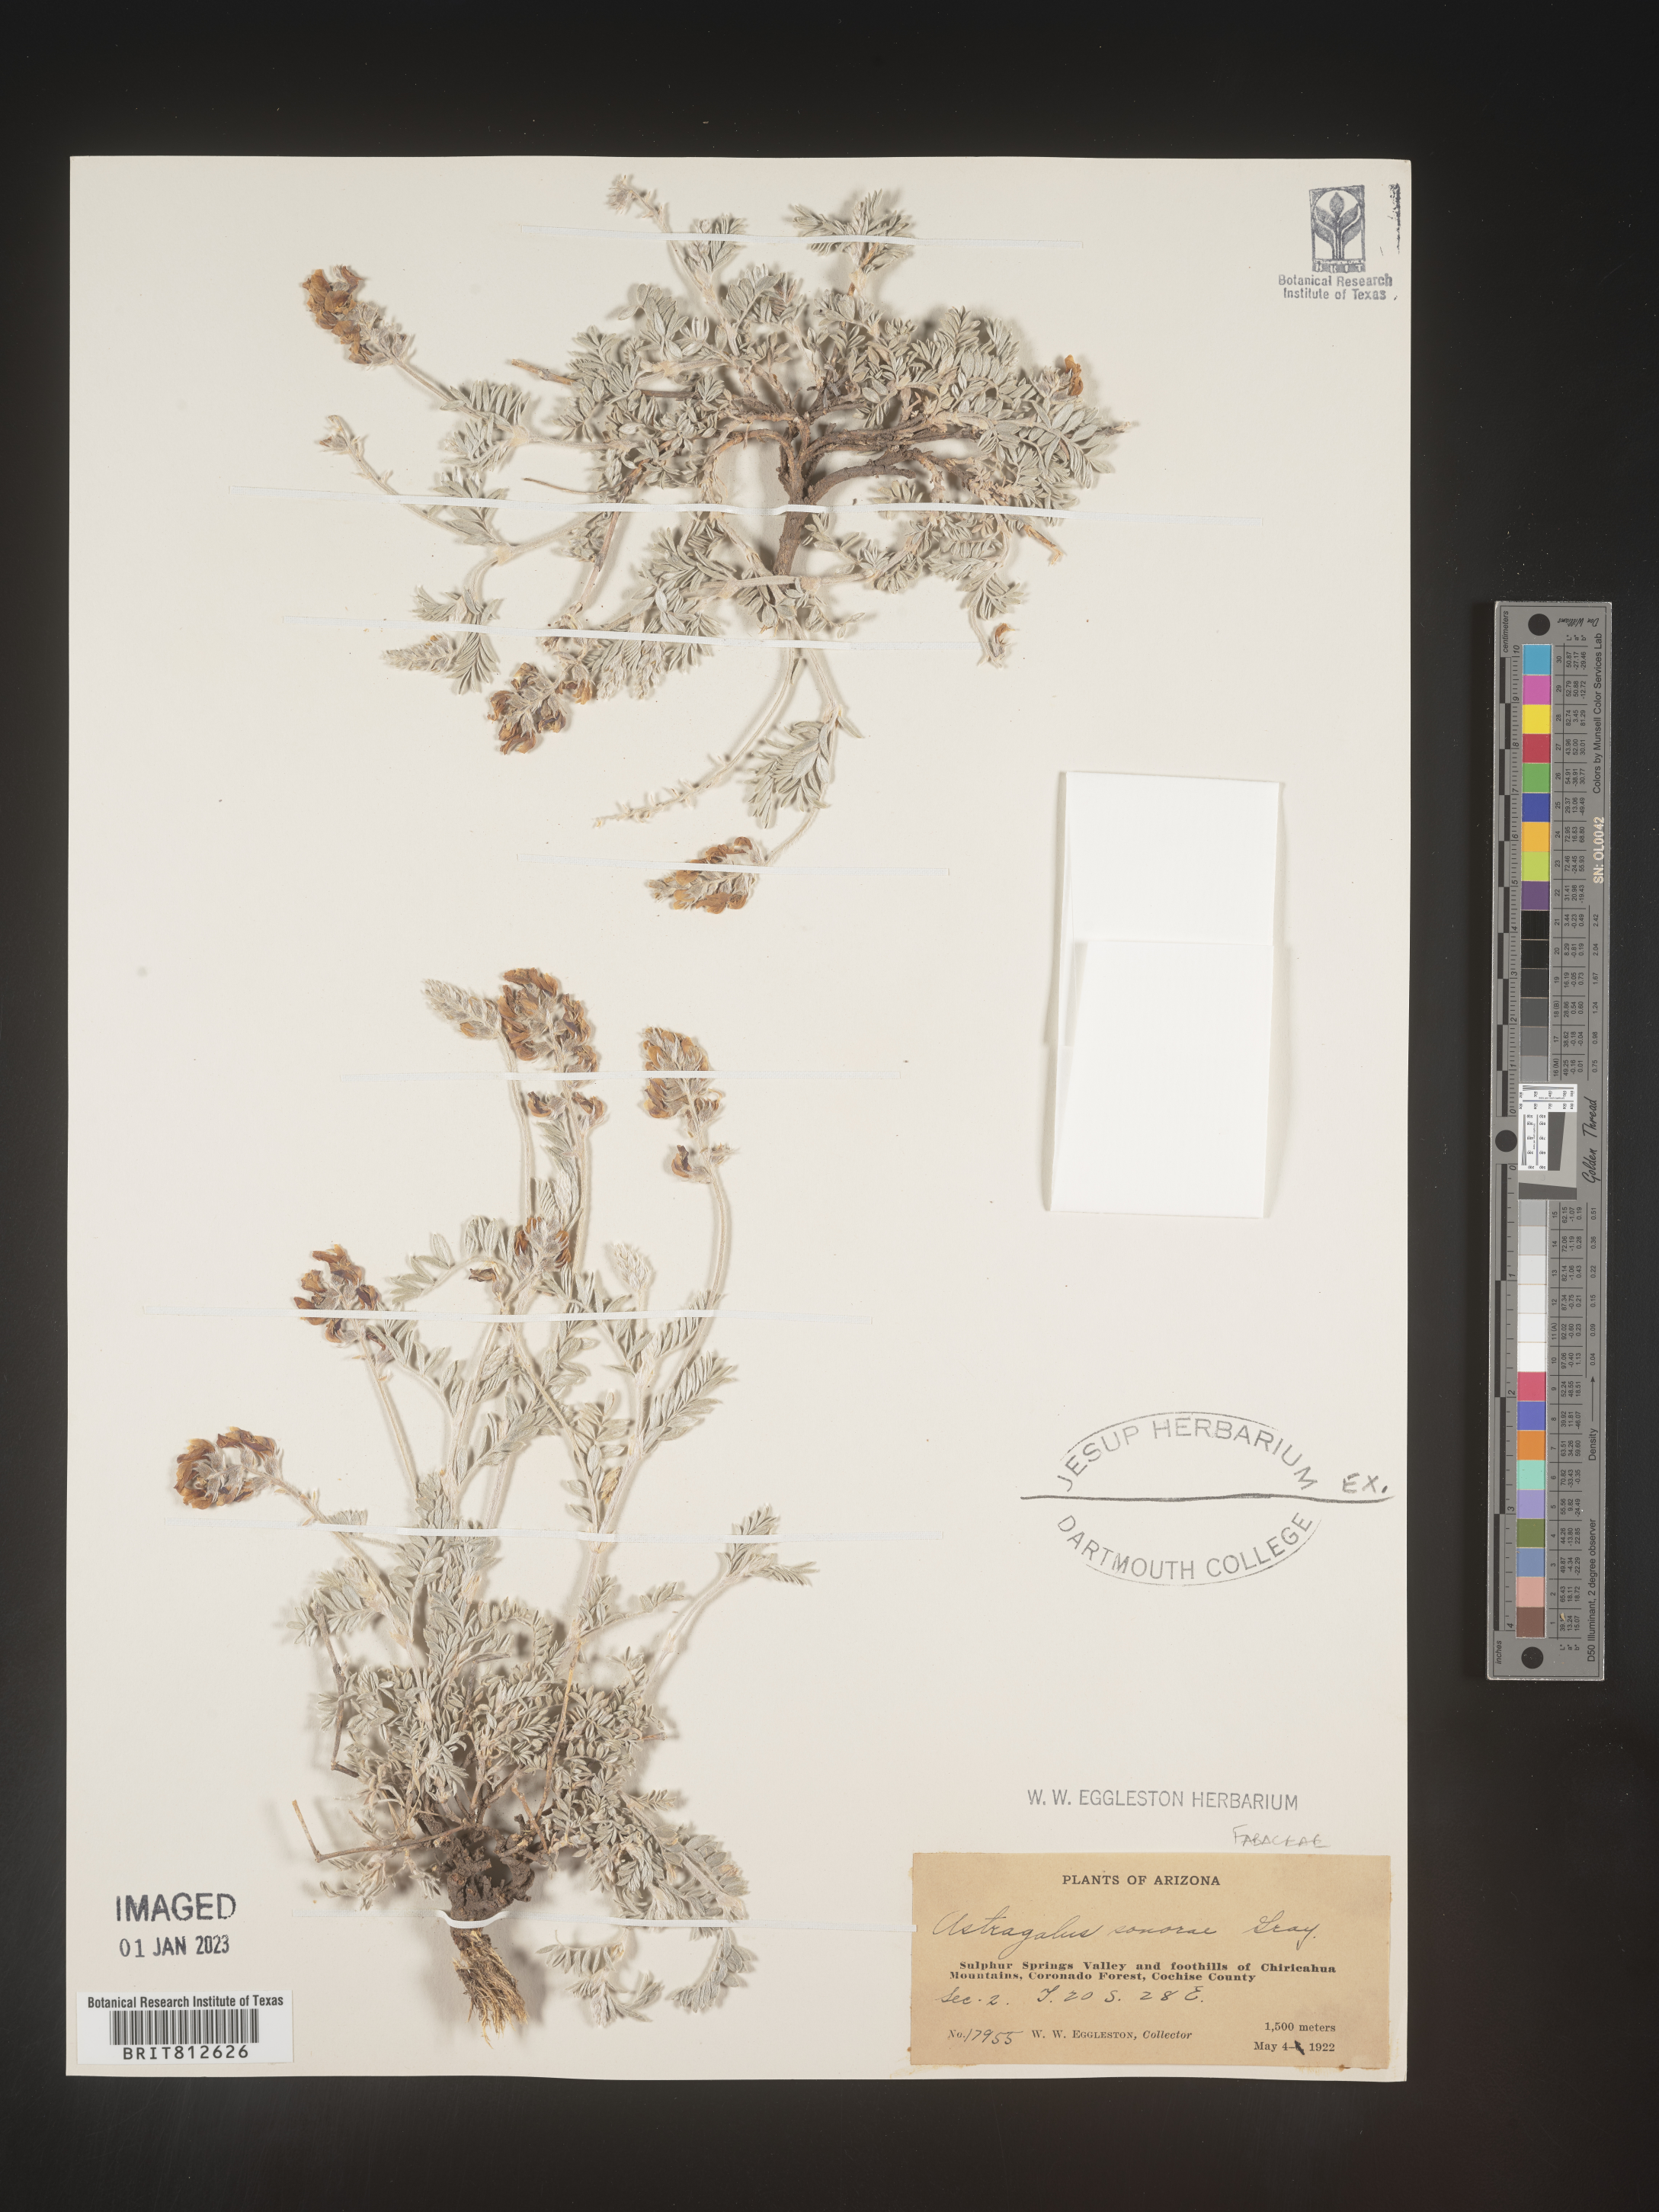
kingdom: Plantae
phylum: Tracheophyta
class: Magnoliopsida
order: Fabales
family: Fabaceae
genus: Astragalus
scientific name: Astragalus
